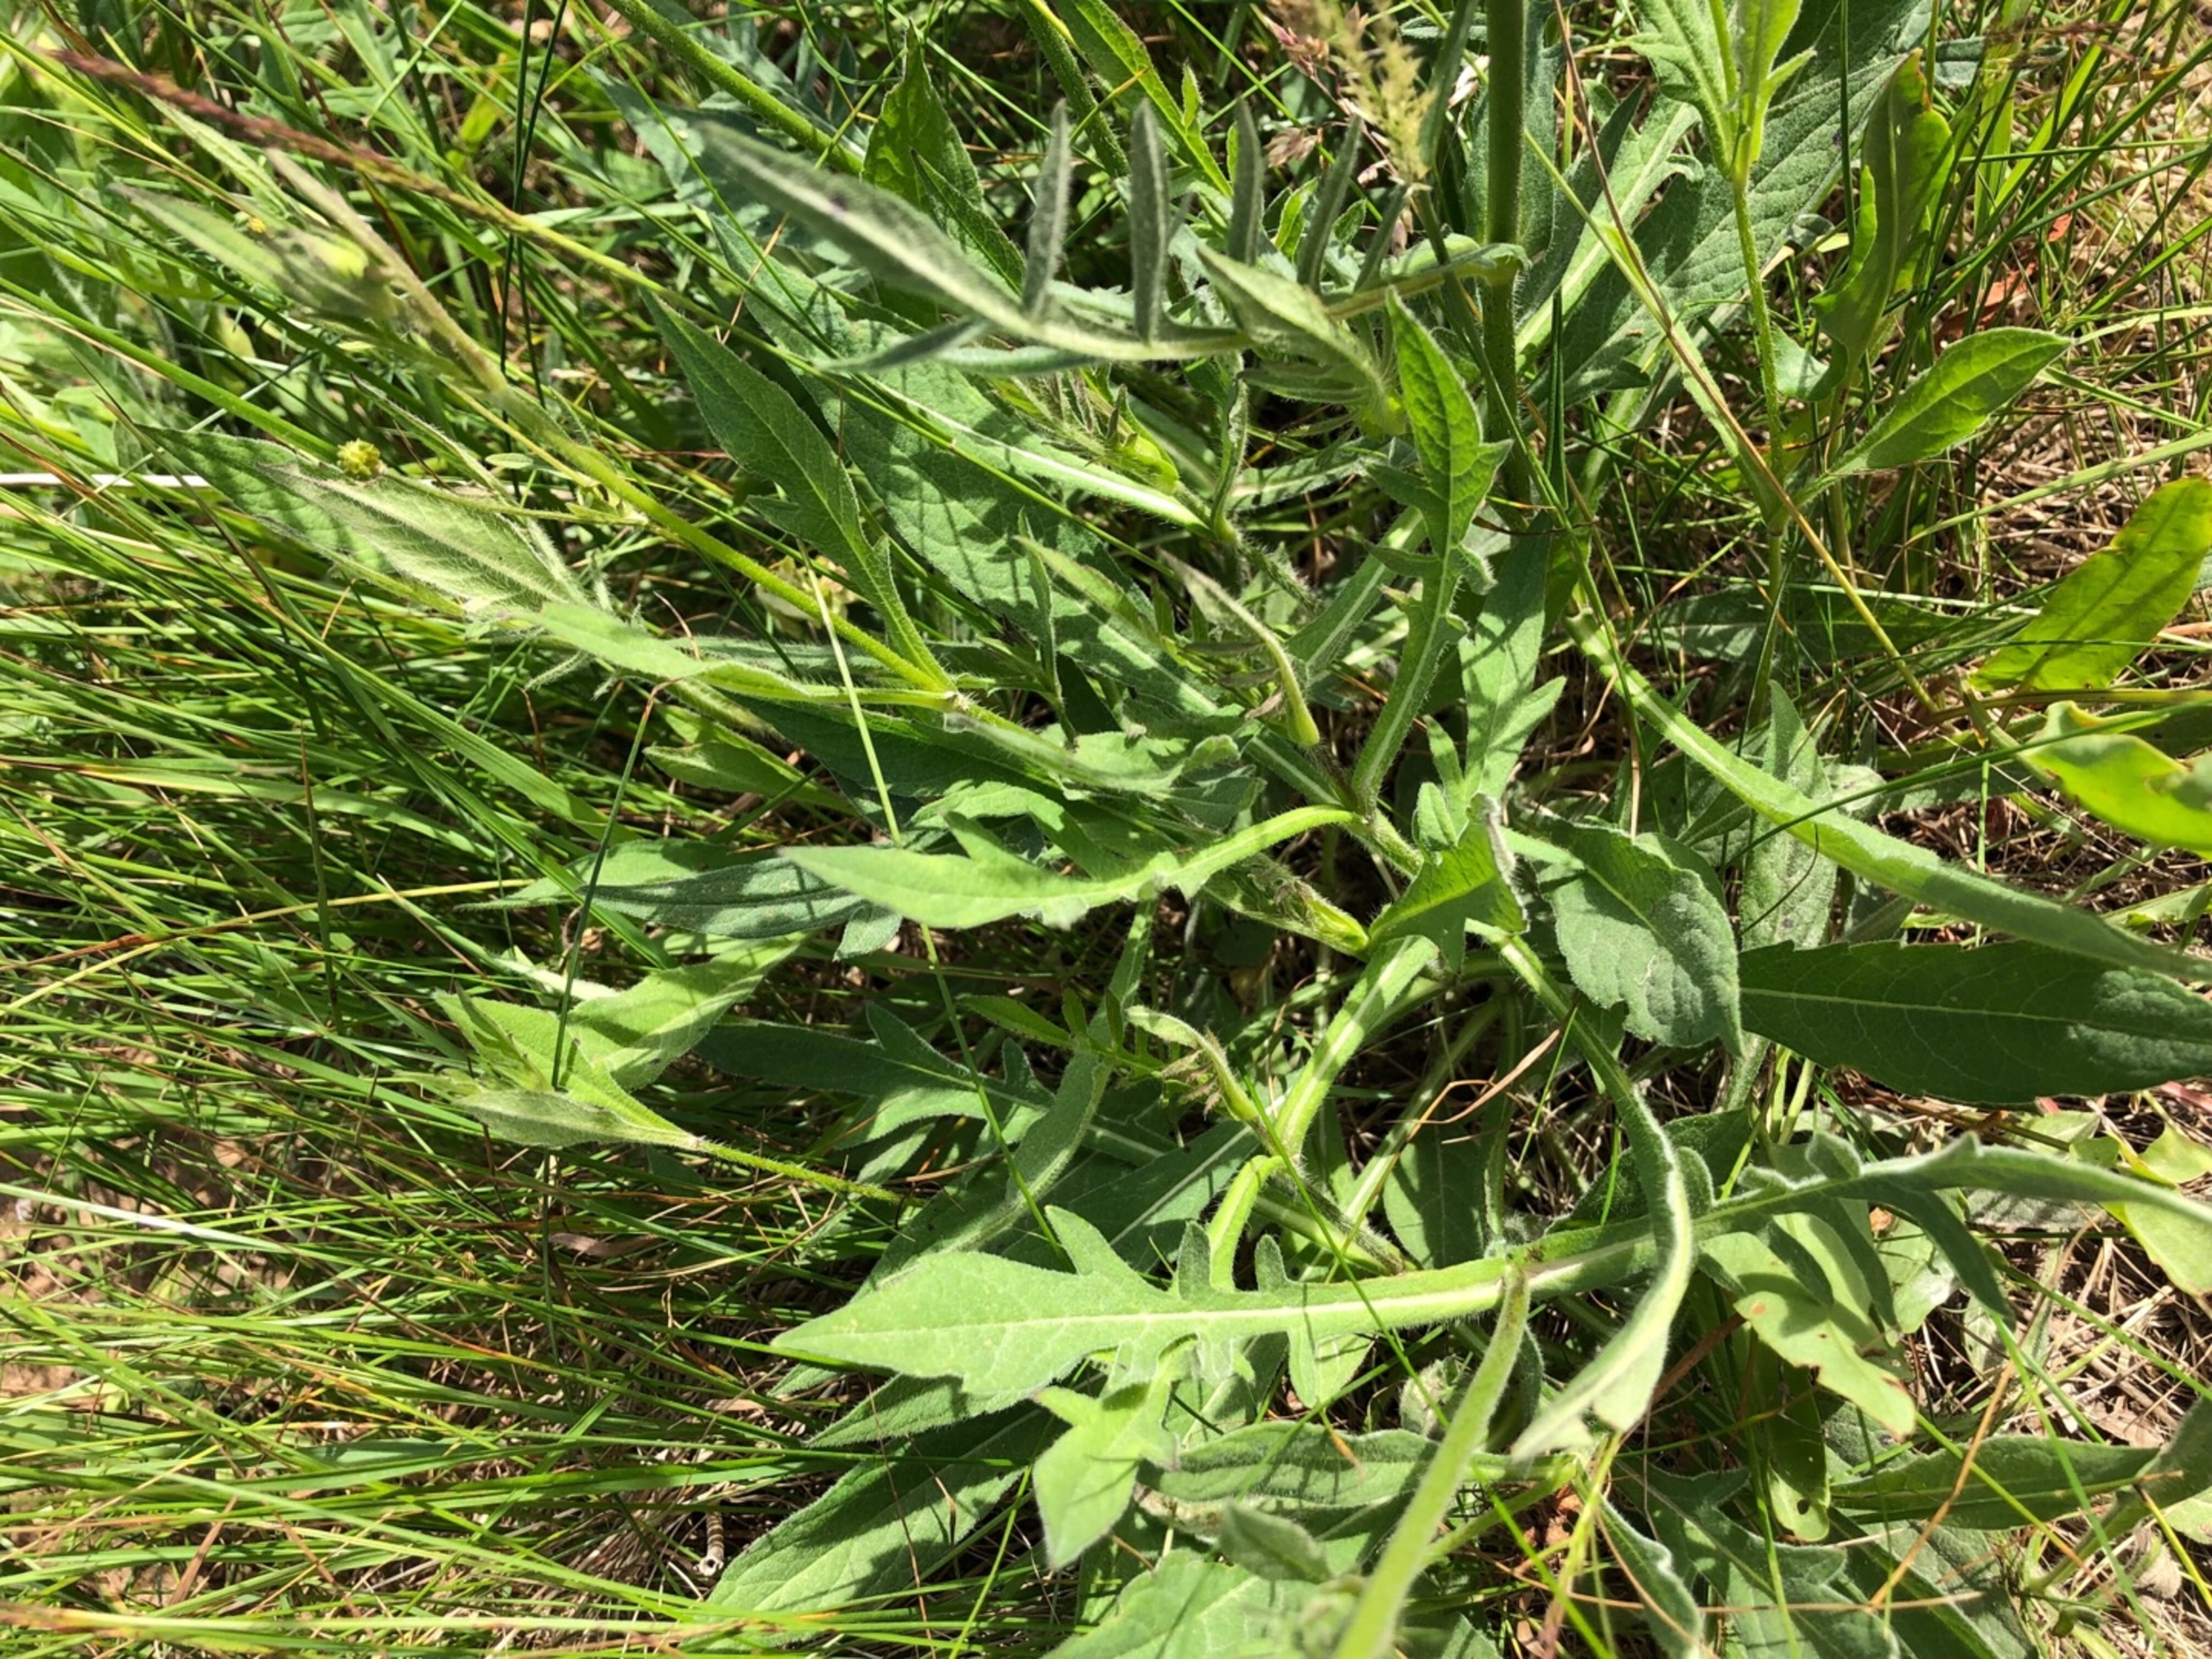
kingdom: Plantae
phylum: Tracheophyta
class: Magnoliopsida
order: Dipsacales
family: Caprifoliaceae
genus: Knautia
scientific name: Knautia arvensis
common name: Blåhat
